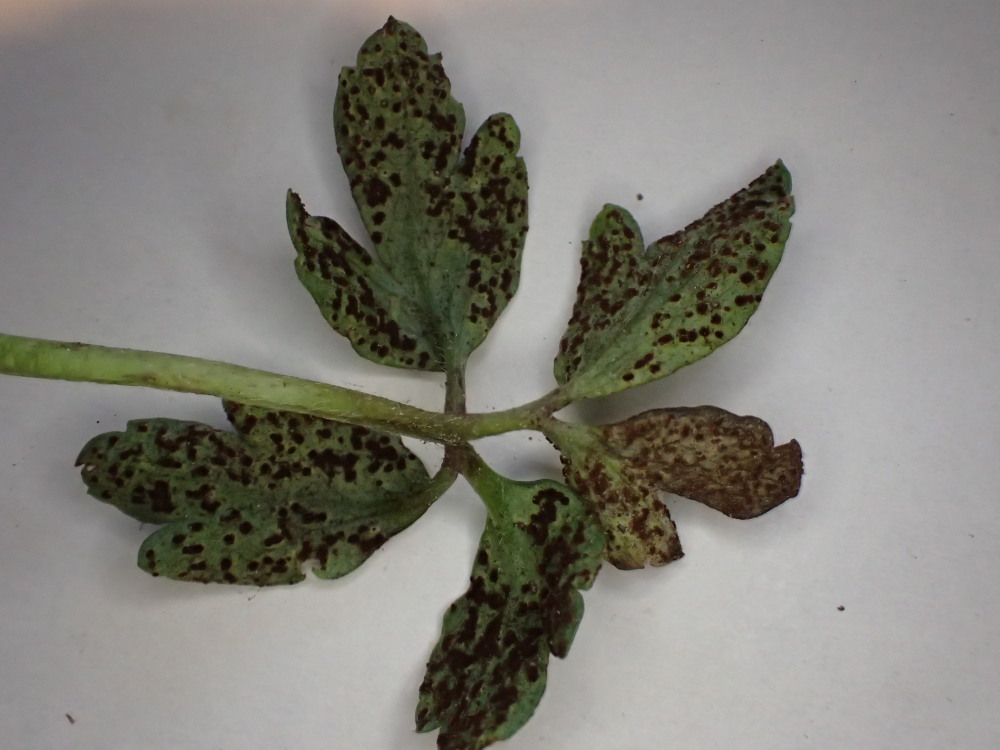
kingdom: Fungi
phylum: Basidiomycota
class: Pucciniomycetes
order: Pucciniales
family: Tranzscheliaceae
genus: Tranzschelia
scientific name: Tranzschelia anemones
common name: anemone-knæksporerust
